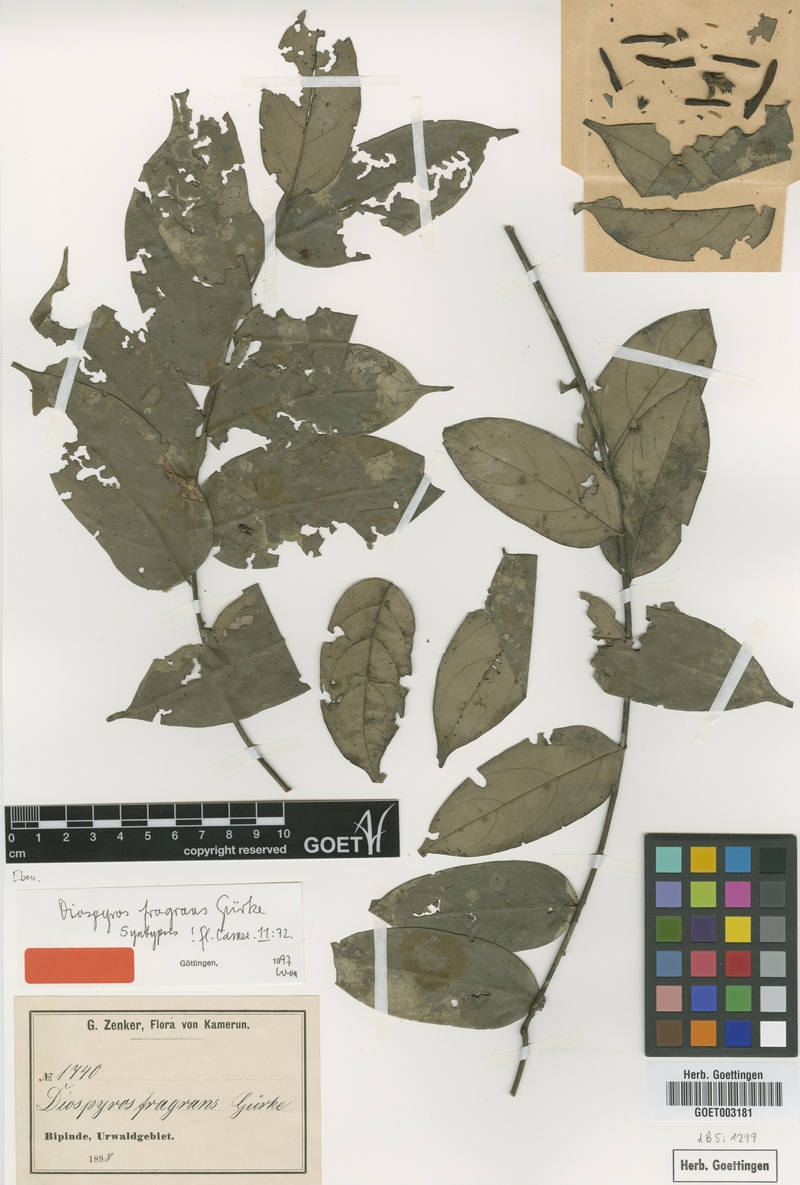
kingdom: Plantae
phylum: Tracheophyta
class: Magnoliopsida
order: Ericales
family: Ebenaceae
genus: Diospyros
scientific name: Diospyros fragrans
